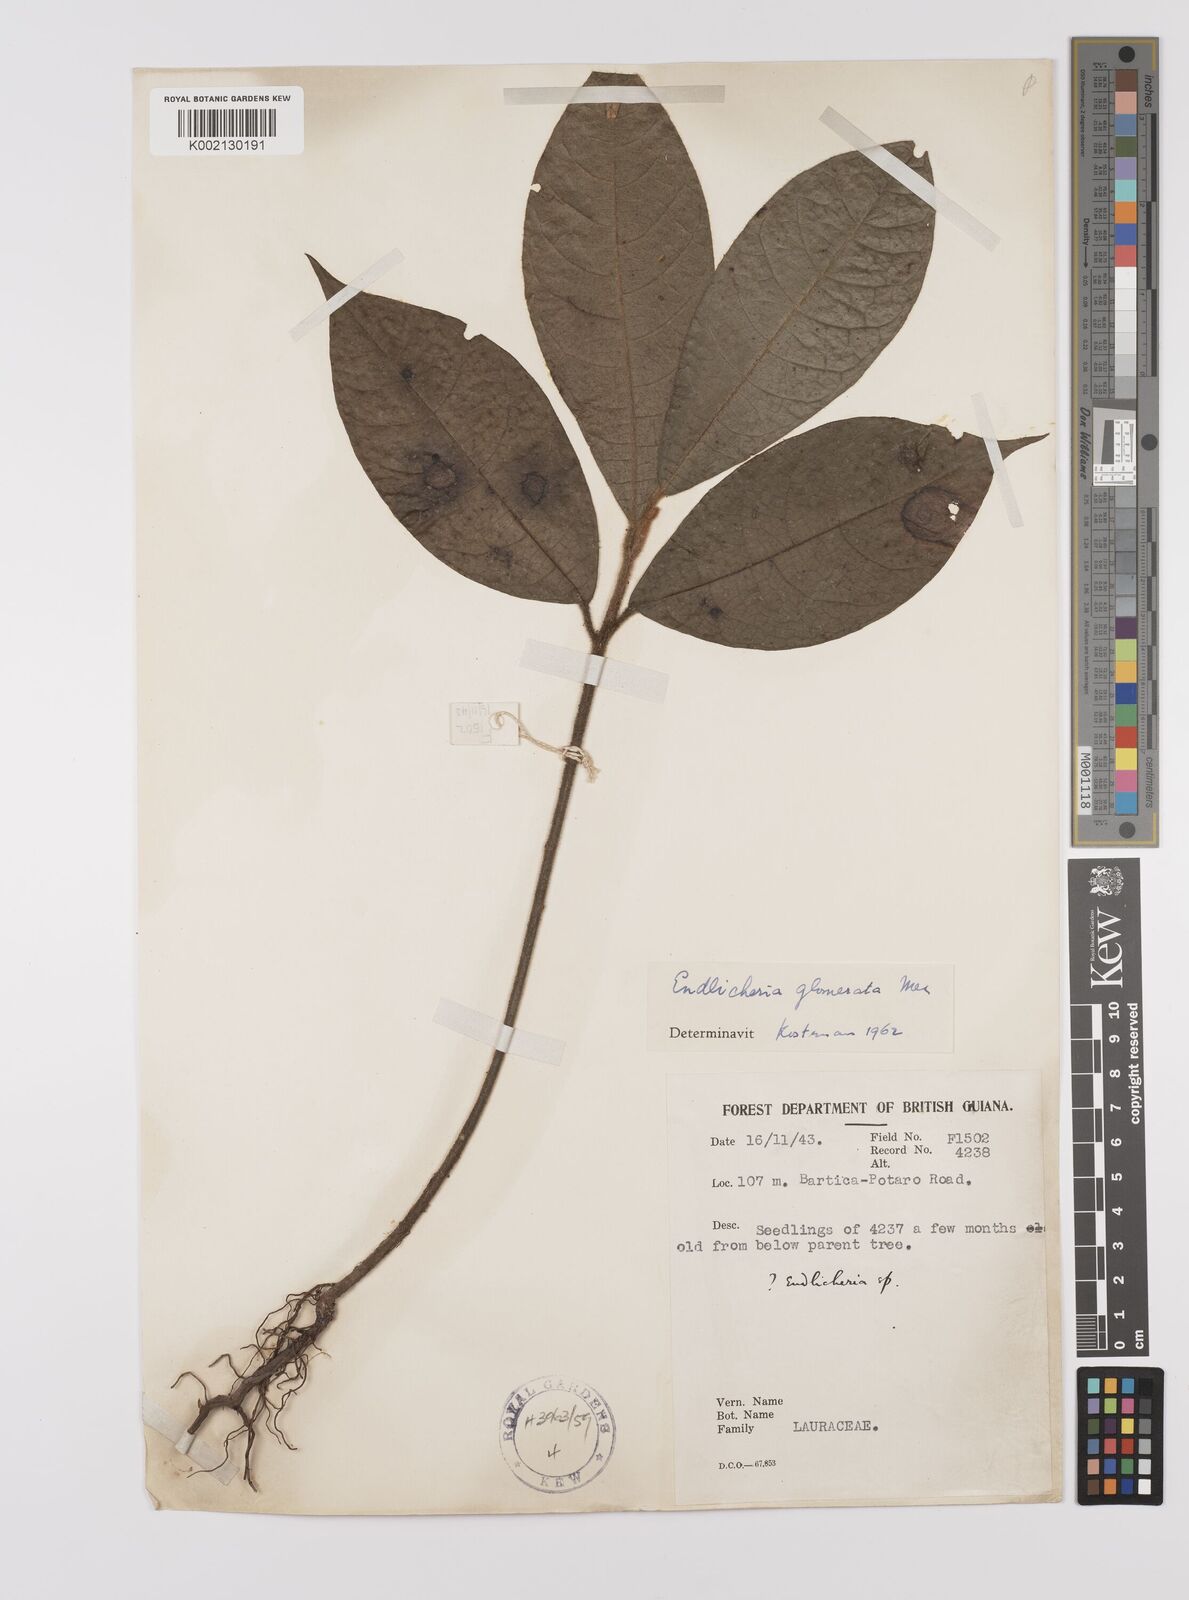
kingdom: Plantae
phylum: Tracheophyta
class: Magnoliopsida
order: Laurales
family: Lauraceae
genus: Endlicheria
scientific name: Endlicheria glomerata
